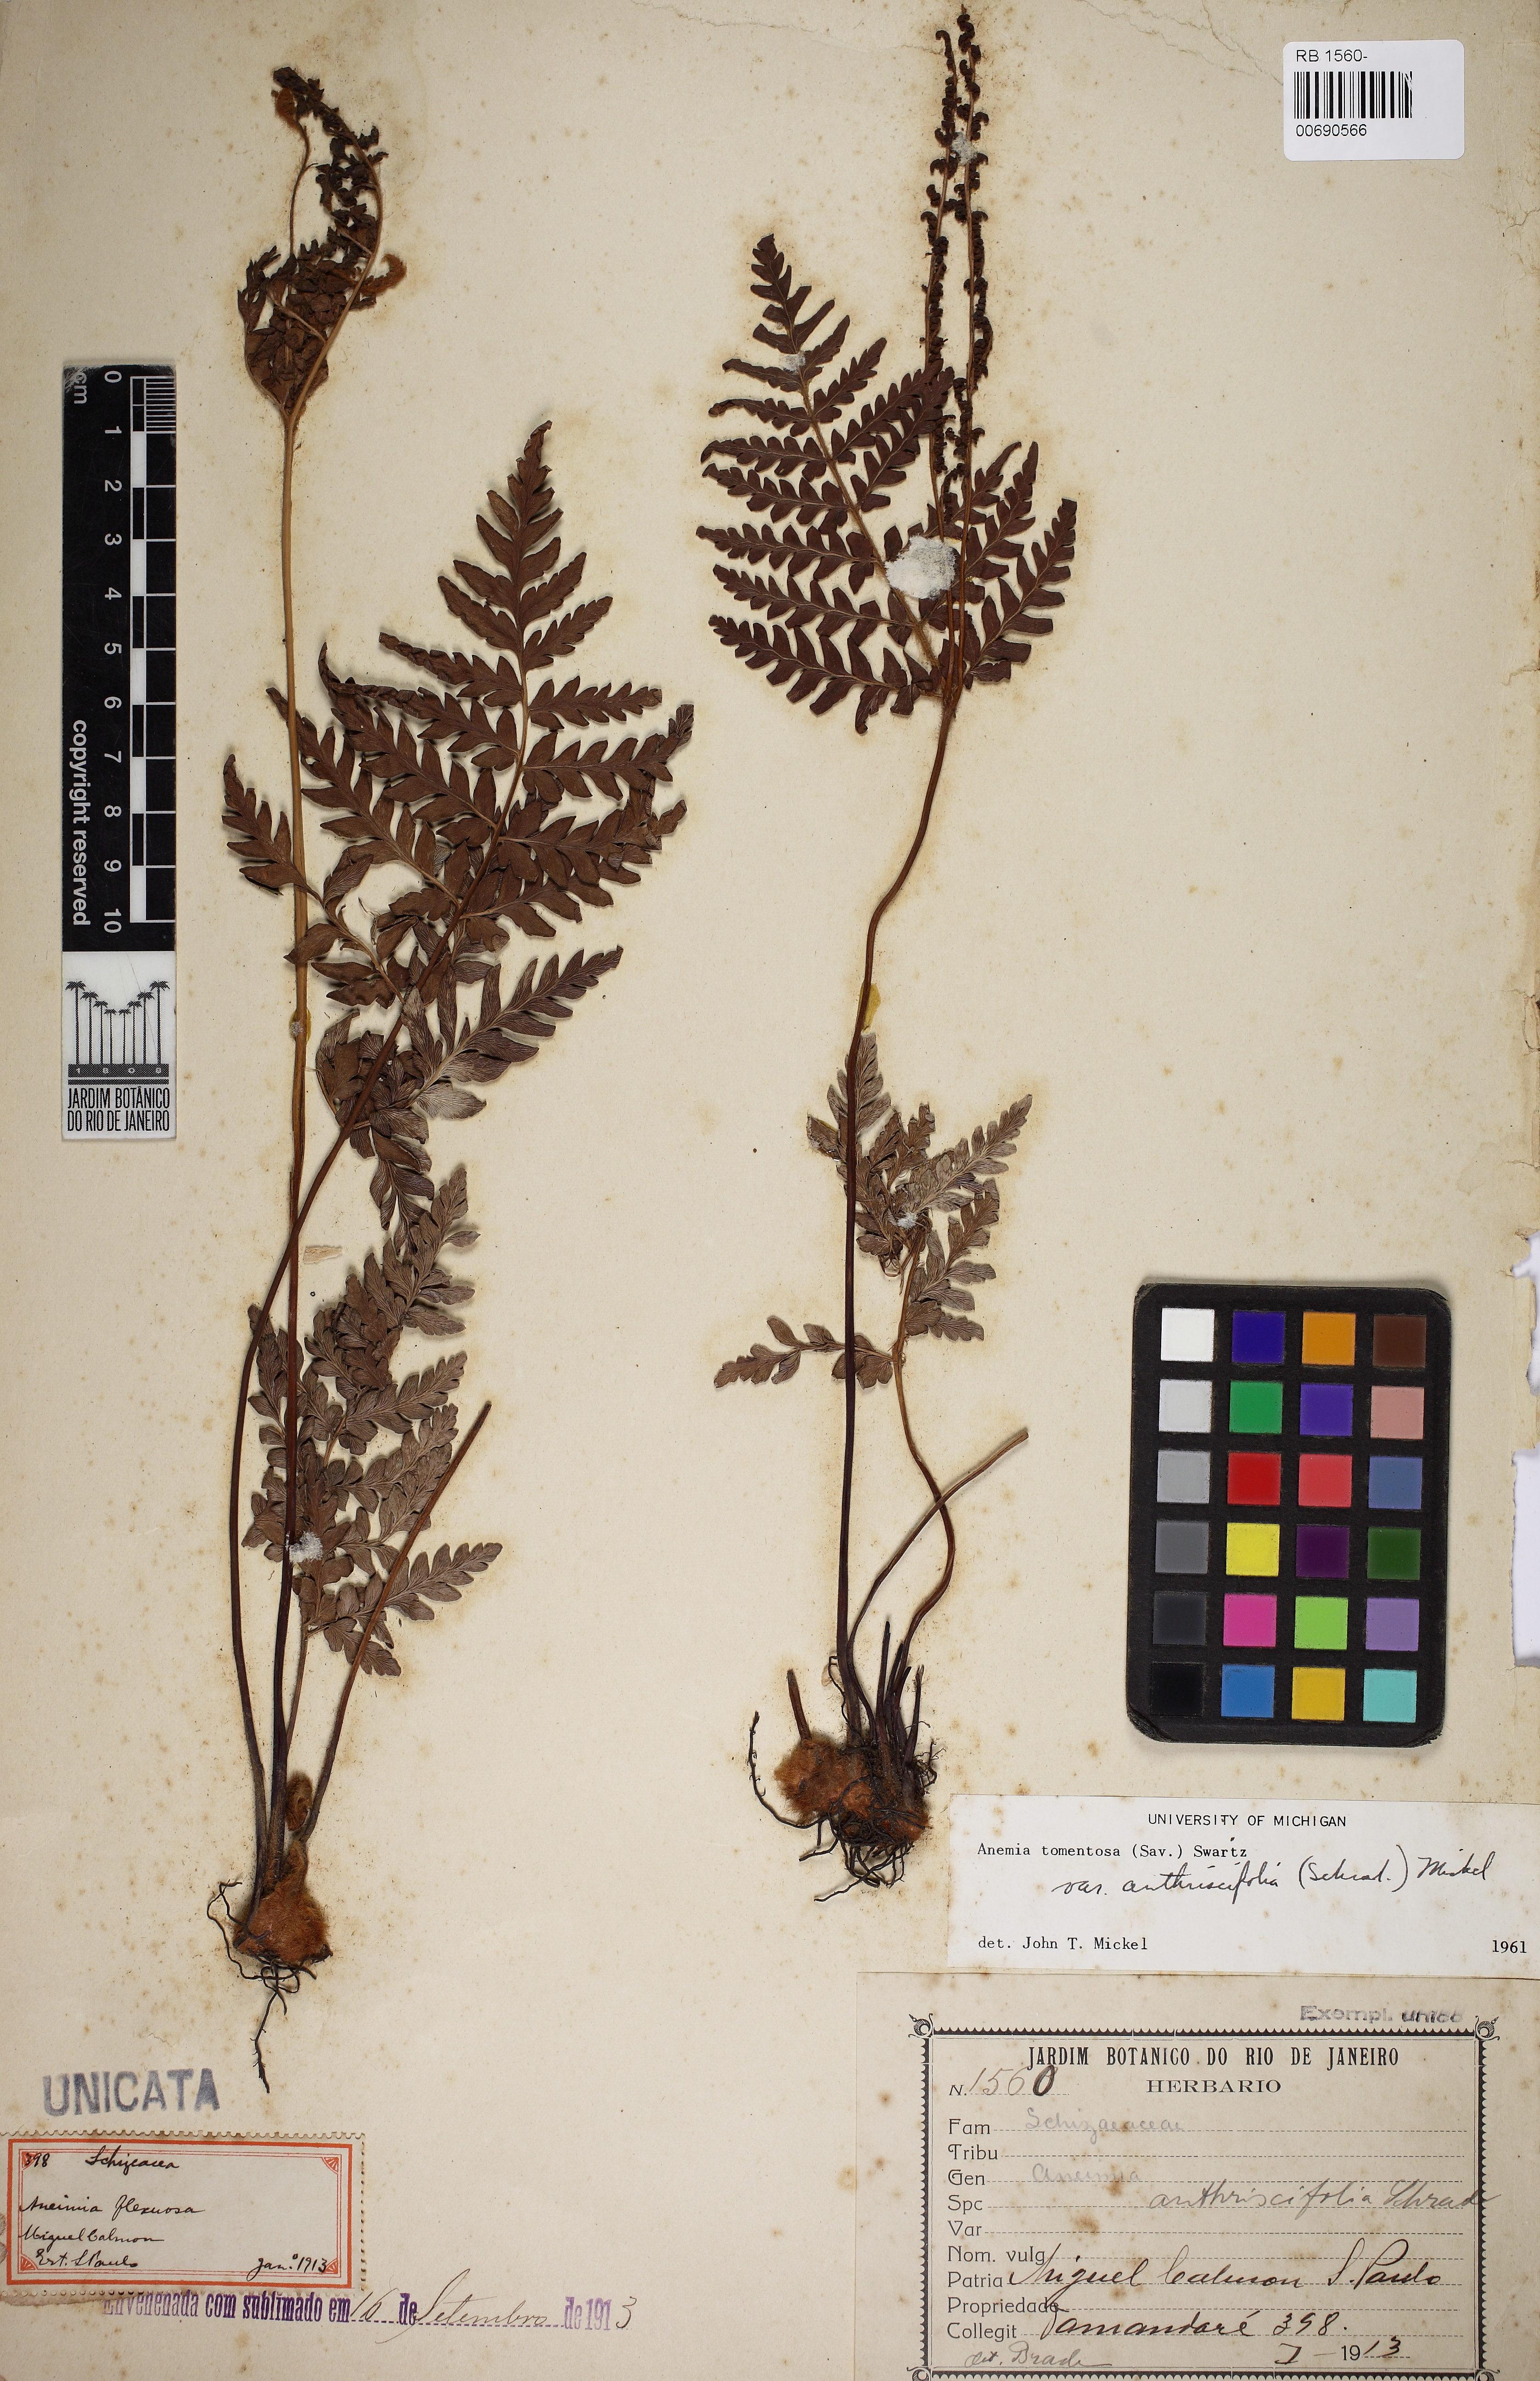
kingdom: Plantae
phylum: Tracheophyta
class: Polypodiopsida
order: Schizaeales
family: Anemiaceae
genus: Anemia
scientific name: Anemia tomentosa
